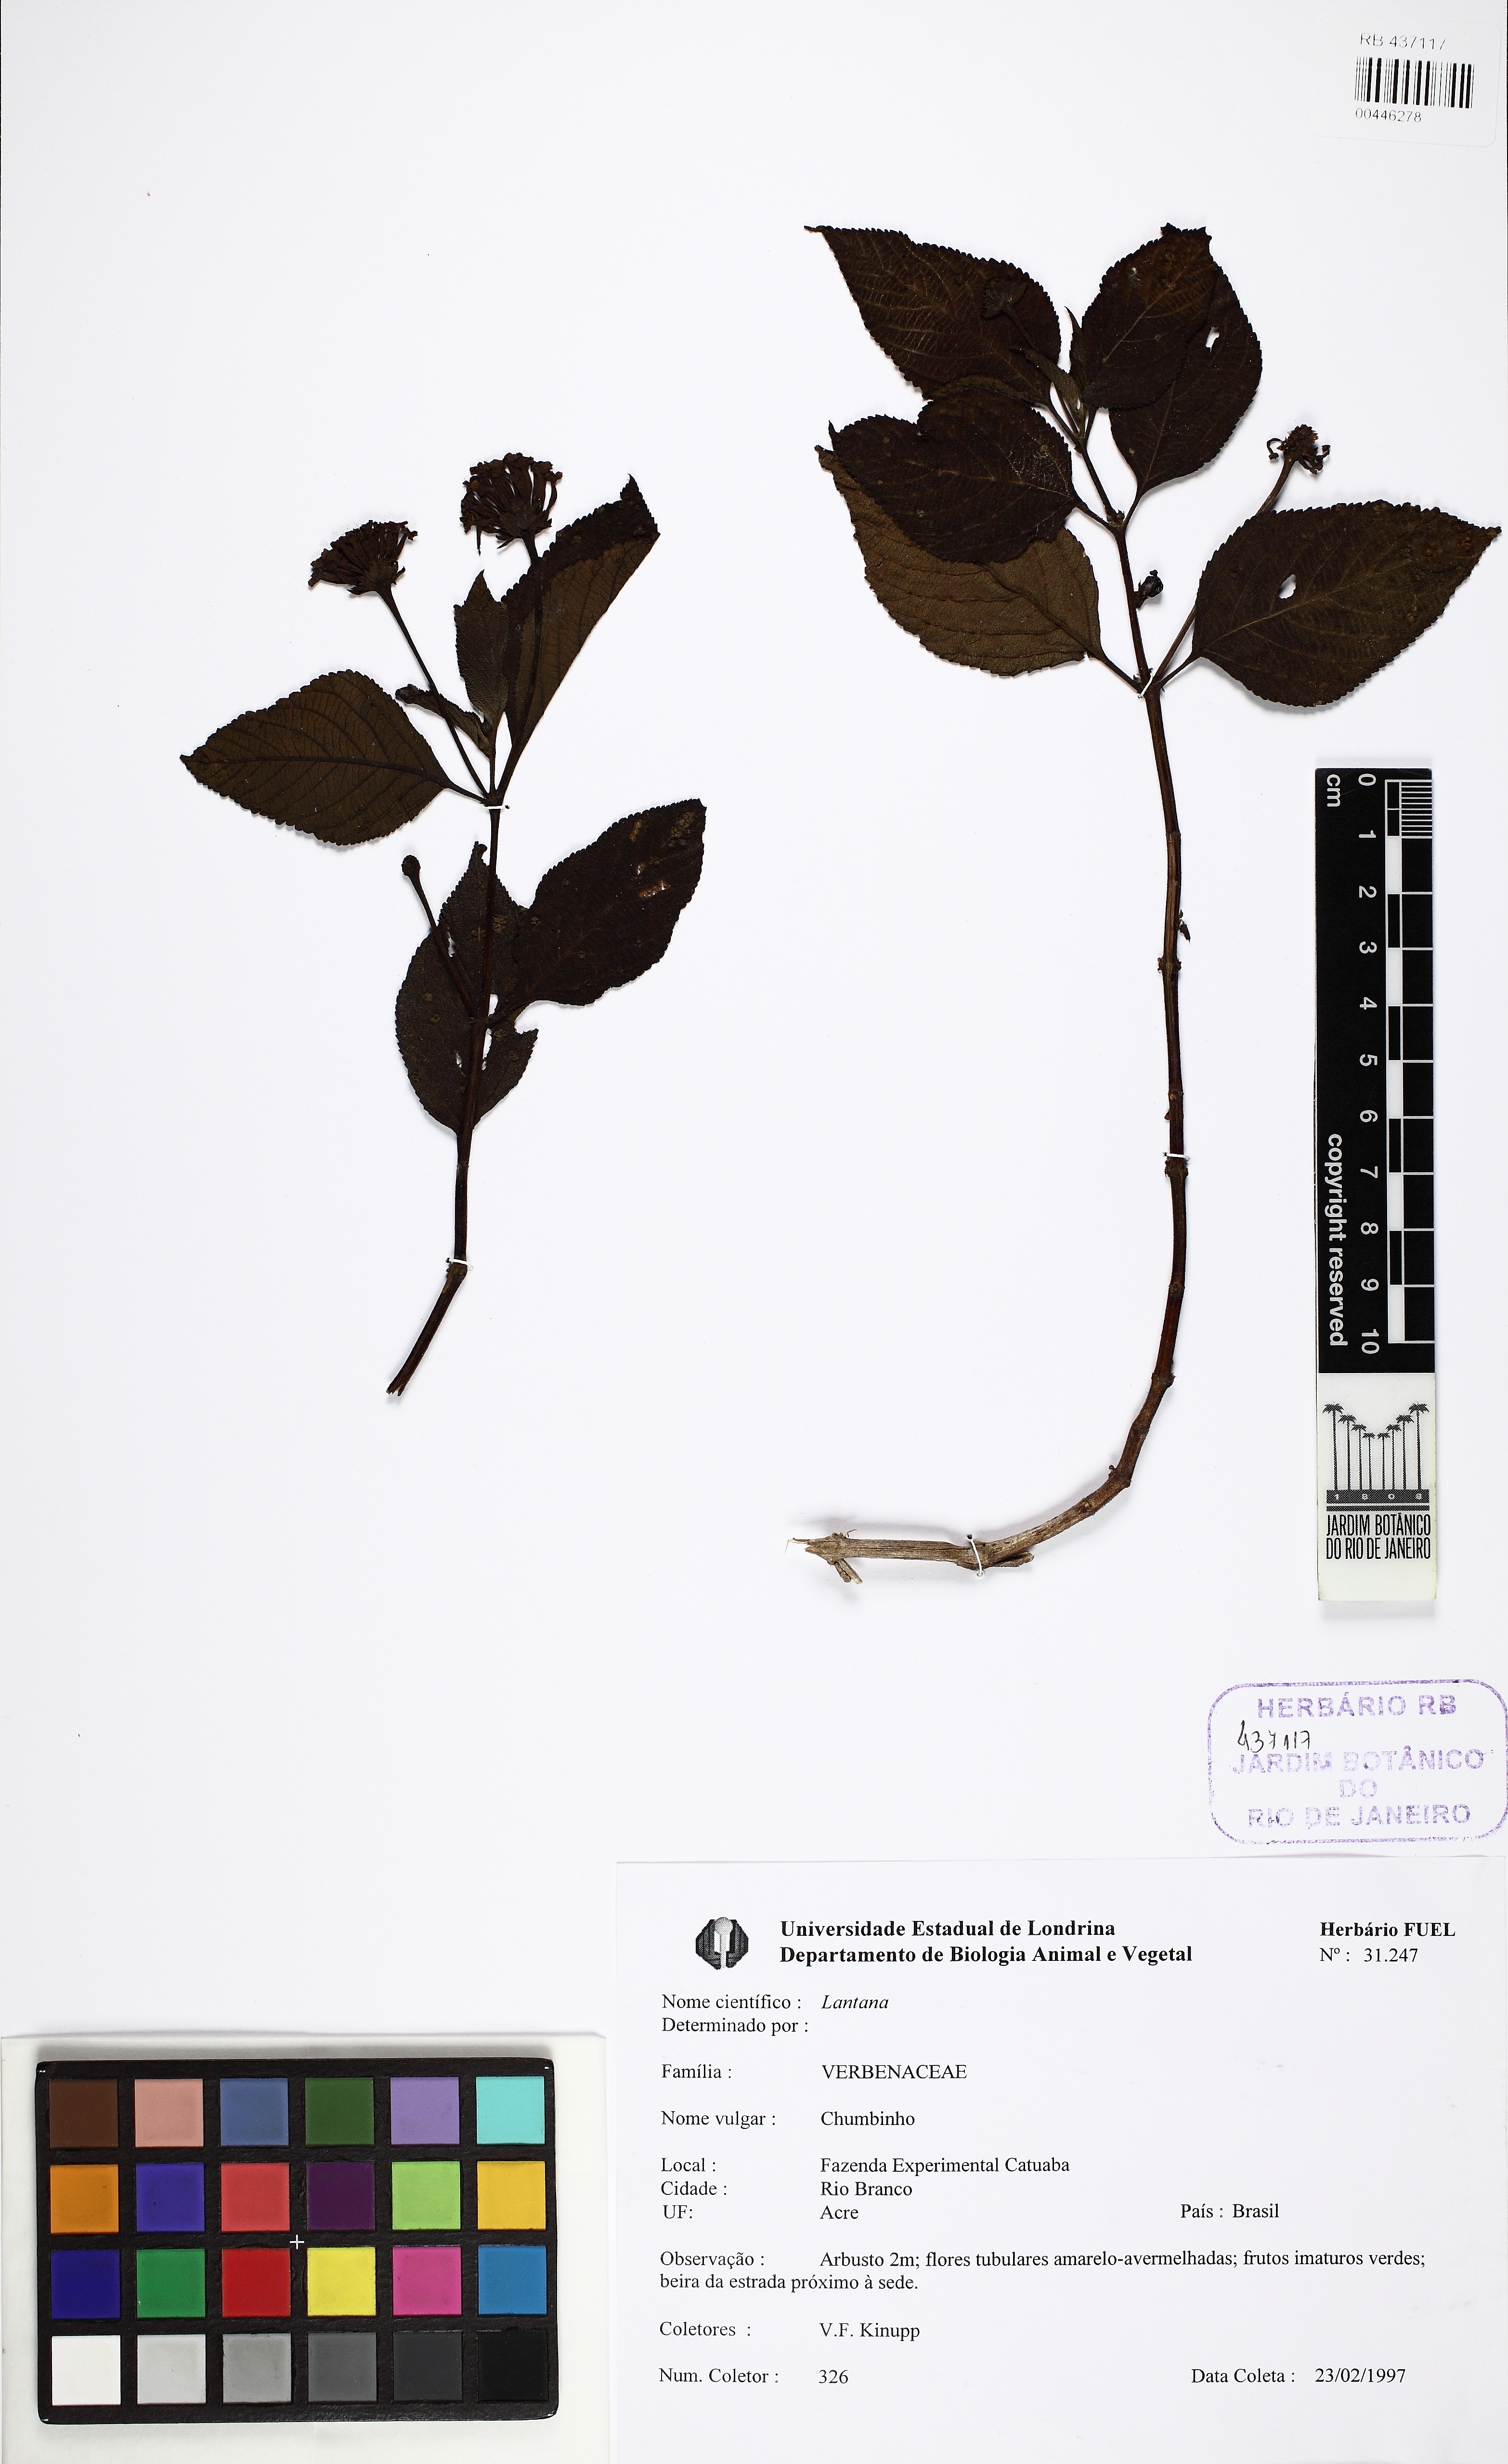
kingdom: Plantae
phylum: Tracheophyta
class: Magnoliopsida
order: Lamiales
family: Verbenaceae
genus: Lantana
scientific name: Lantana
